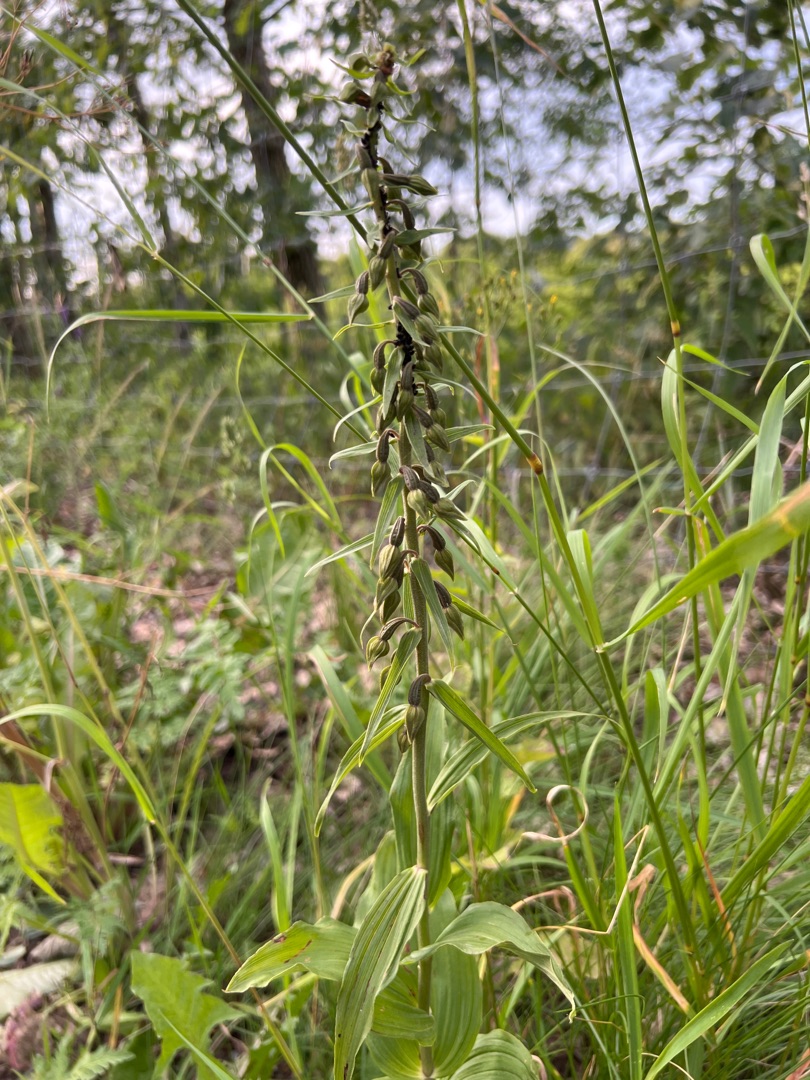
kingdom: Plantae
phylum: Tracheophyta
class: Liliopsida
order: Asparagales
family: Orchidaceae
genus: Epipactis
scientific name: Epipactis helleborine
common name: Skov-hullæbe
